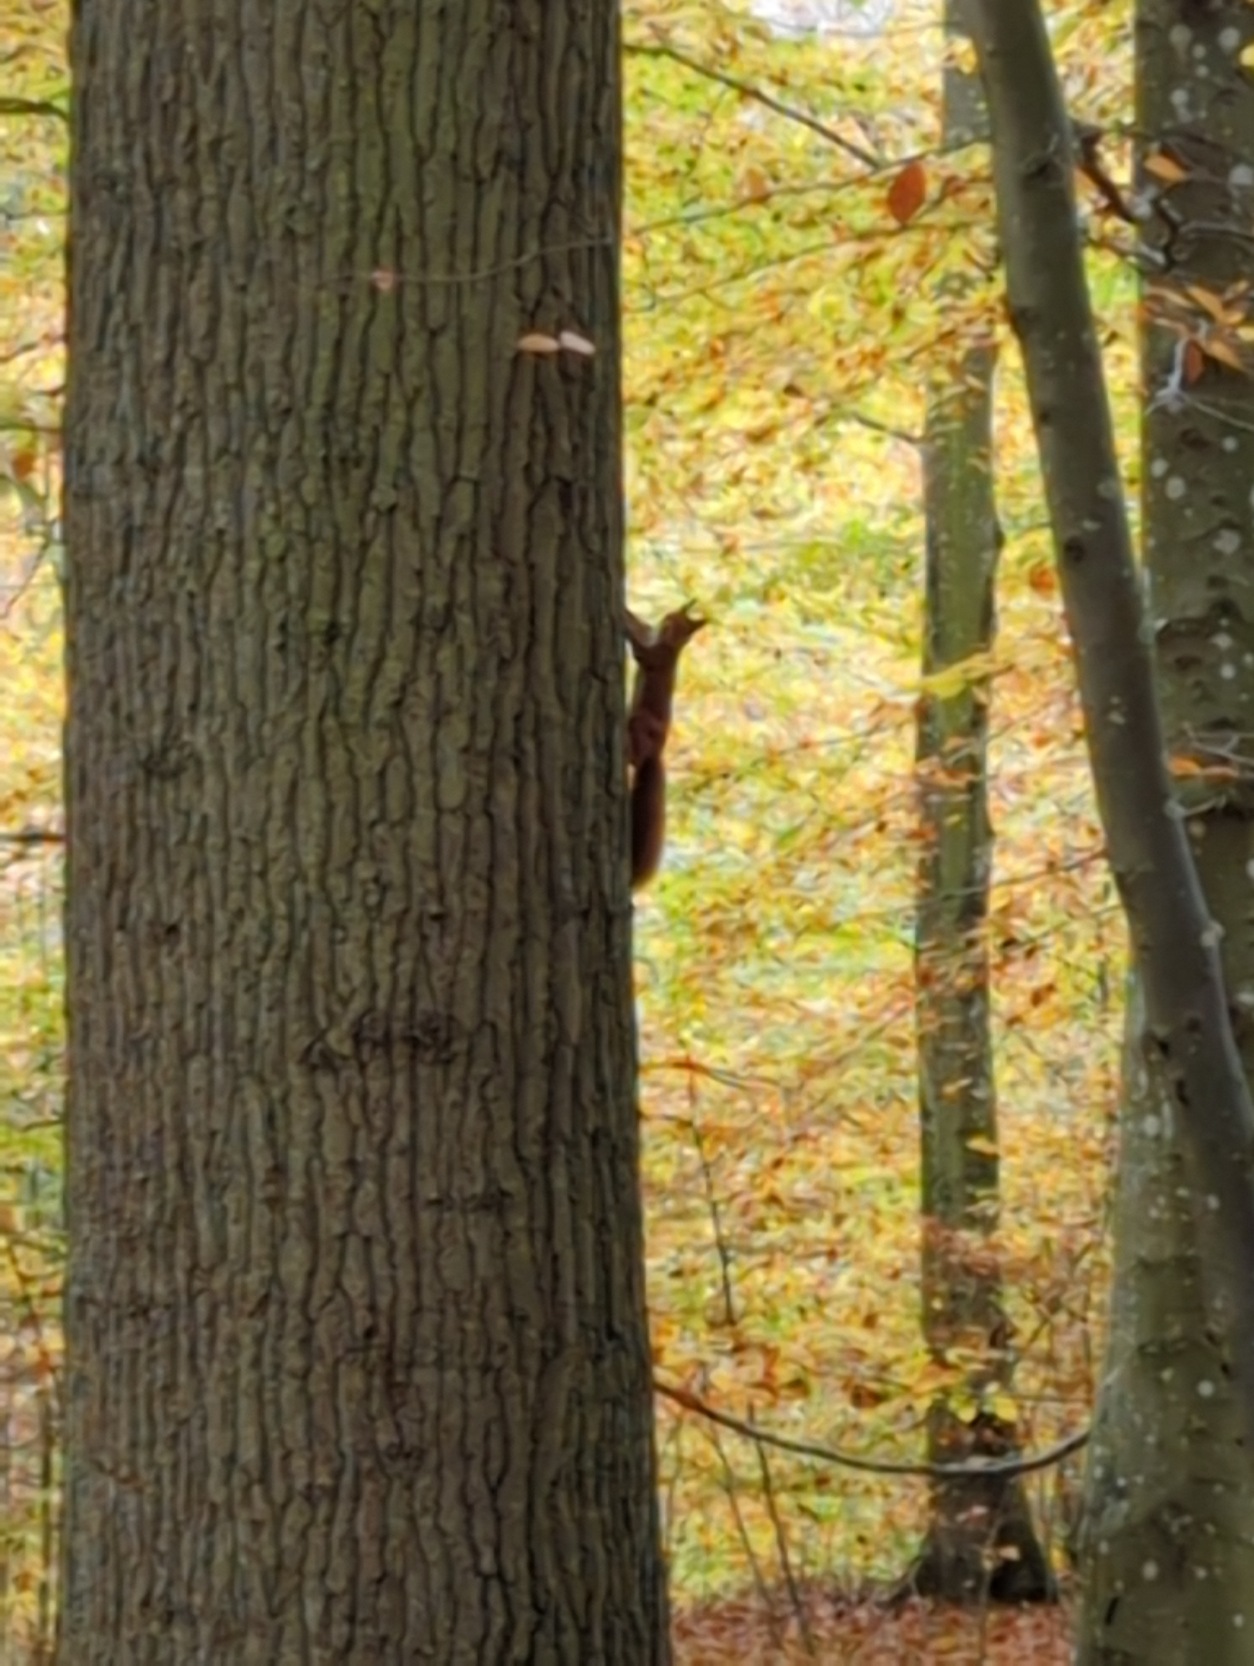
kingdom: Animalia
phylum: Chordata
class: Mammalia
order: Rodentia
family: Sciuridae
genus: Sciurus
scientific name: Sciurus vulgaris
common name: Egern
